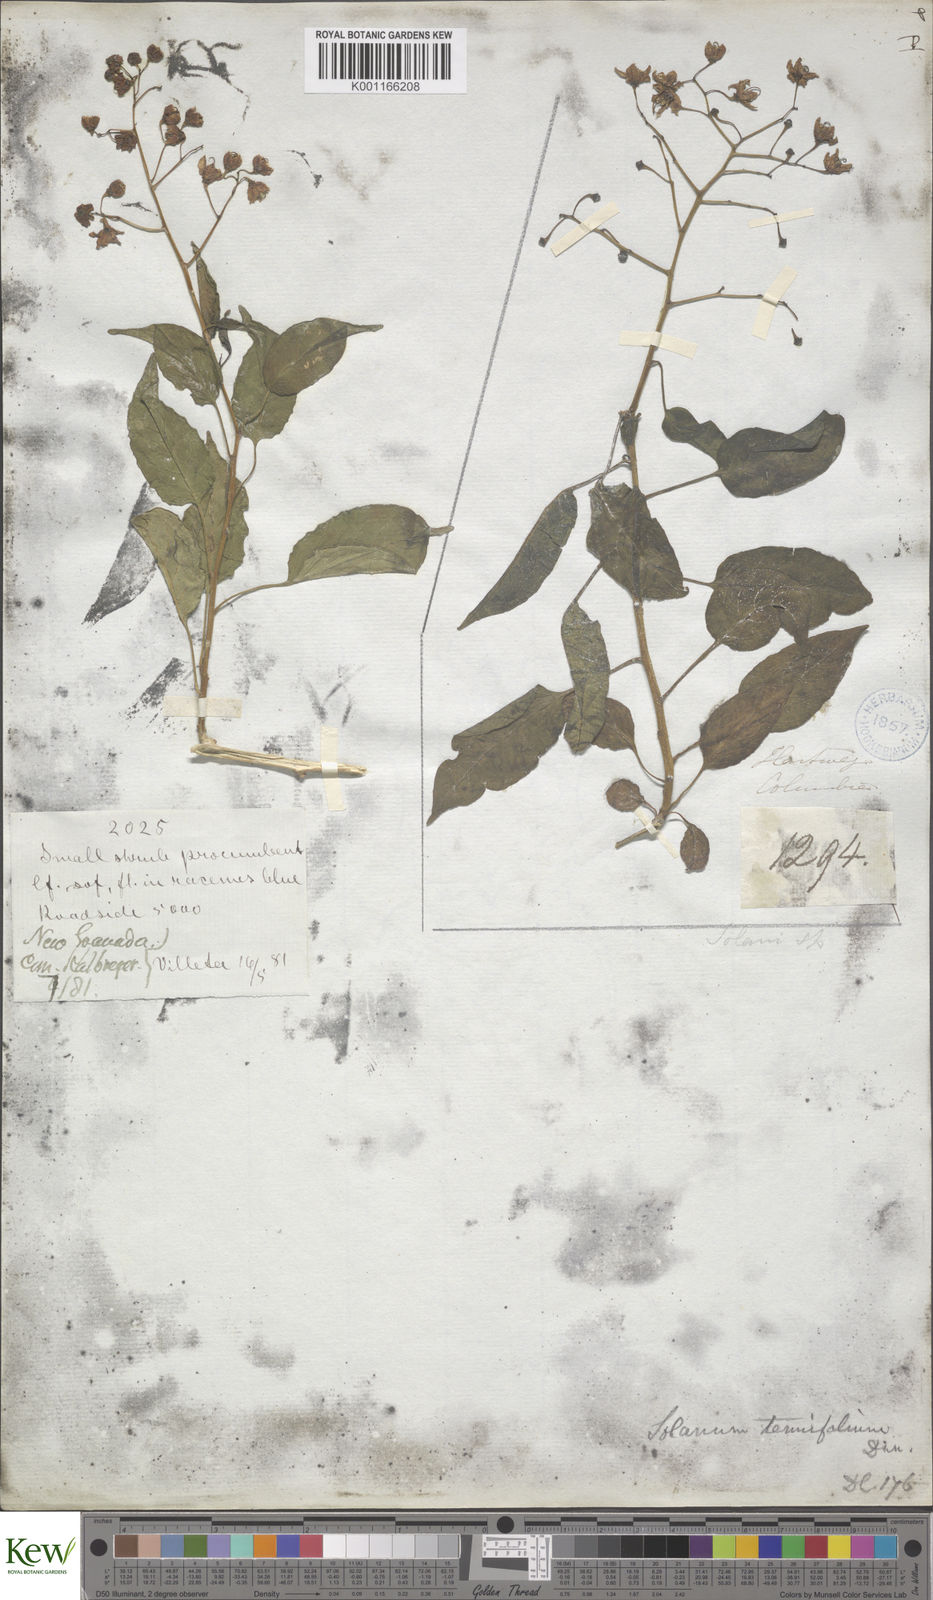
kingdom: Plantae
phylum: Tracheophyta
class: Magnoliopsida
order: Solanales
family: Solanaceae
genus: Solanum
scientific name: Solanum seaforthianum
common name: Brazilian nightshade
